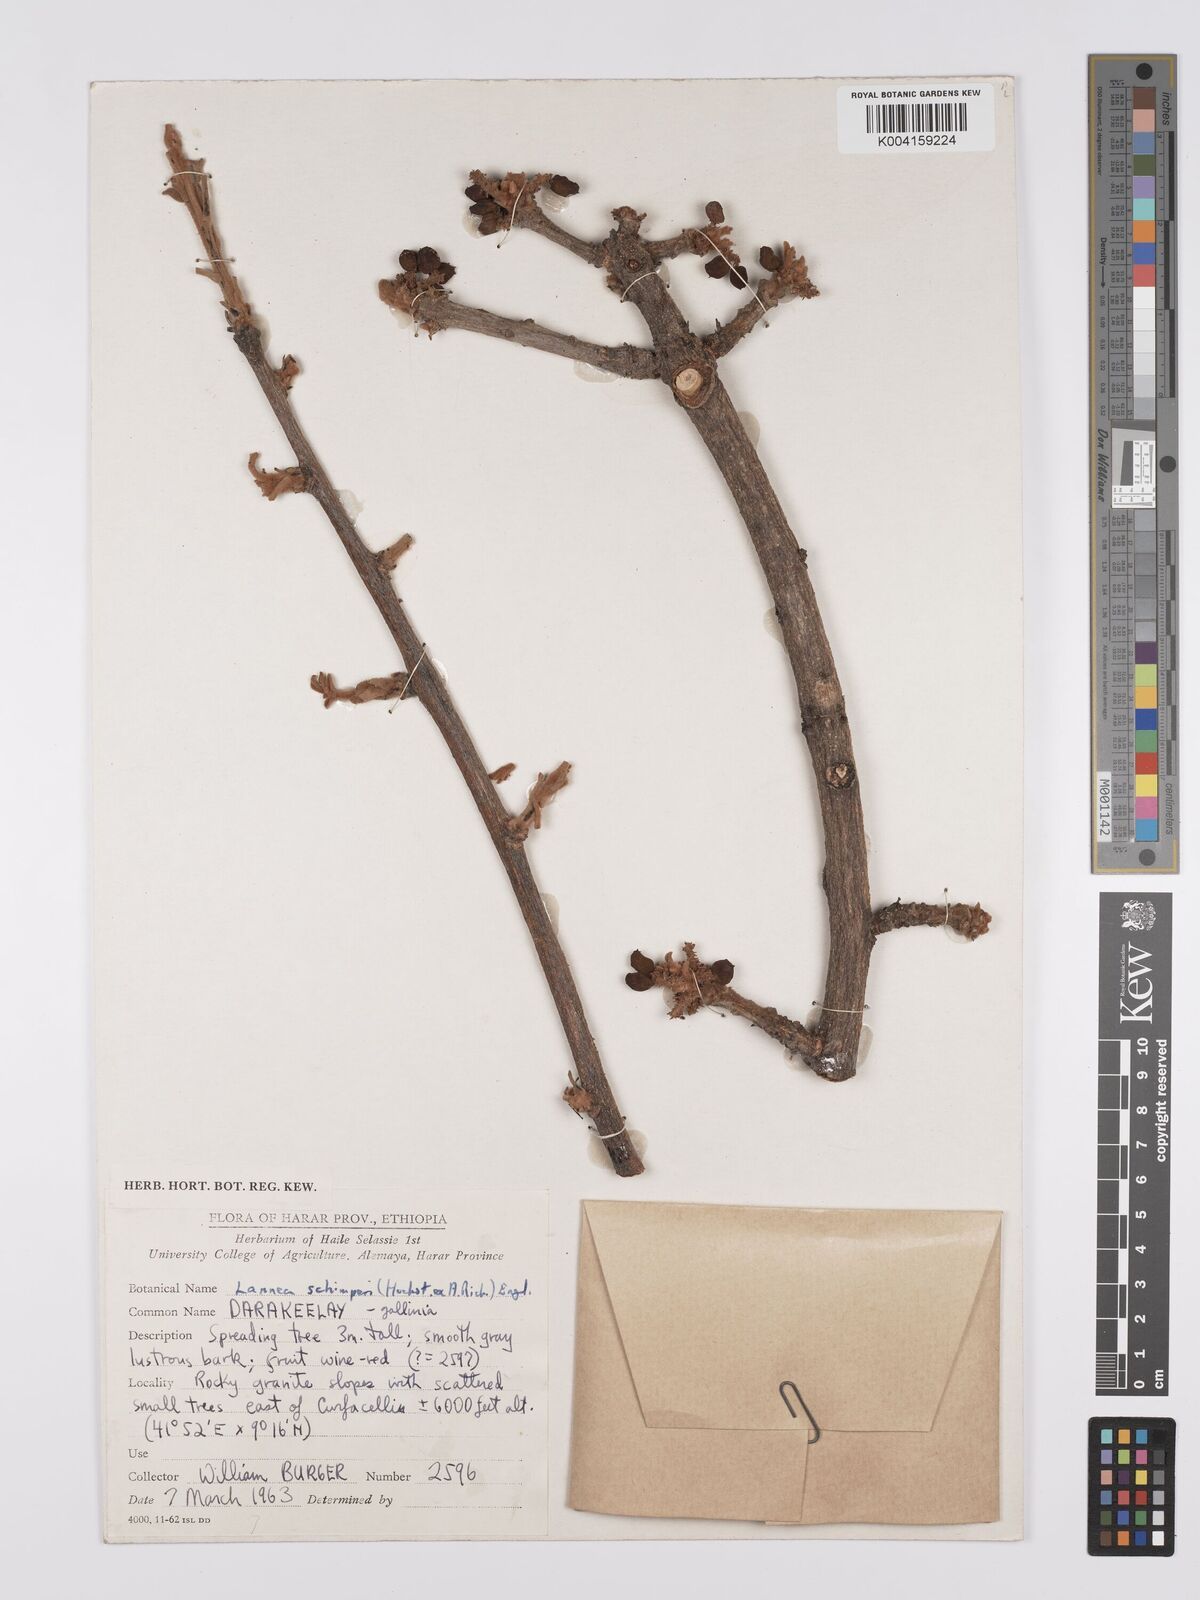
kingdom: Plantae
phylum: Tracheophyta
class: Magnoliopsida
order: Sapindales
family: Anacardiaceae
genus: Lannea
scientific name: Lannea schimperi
